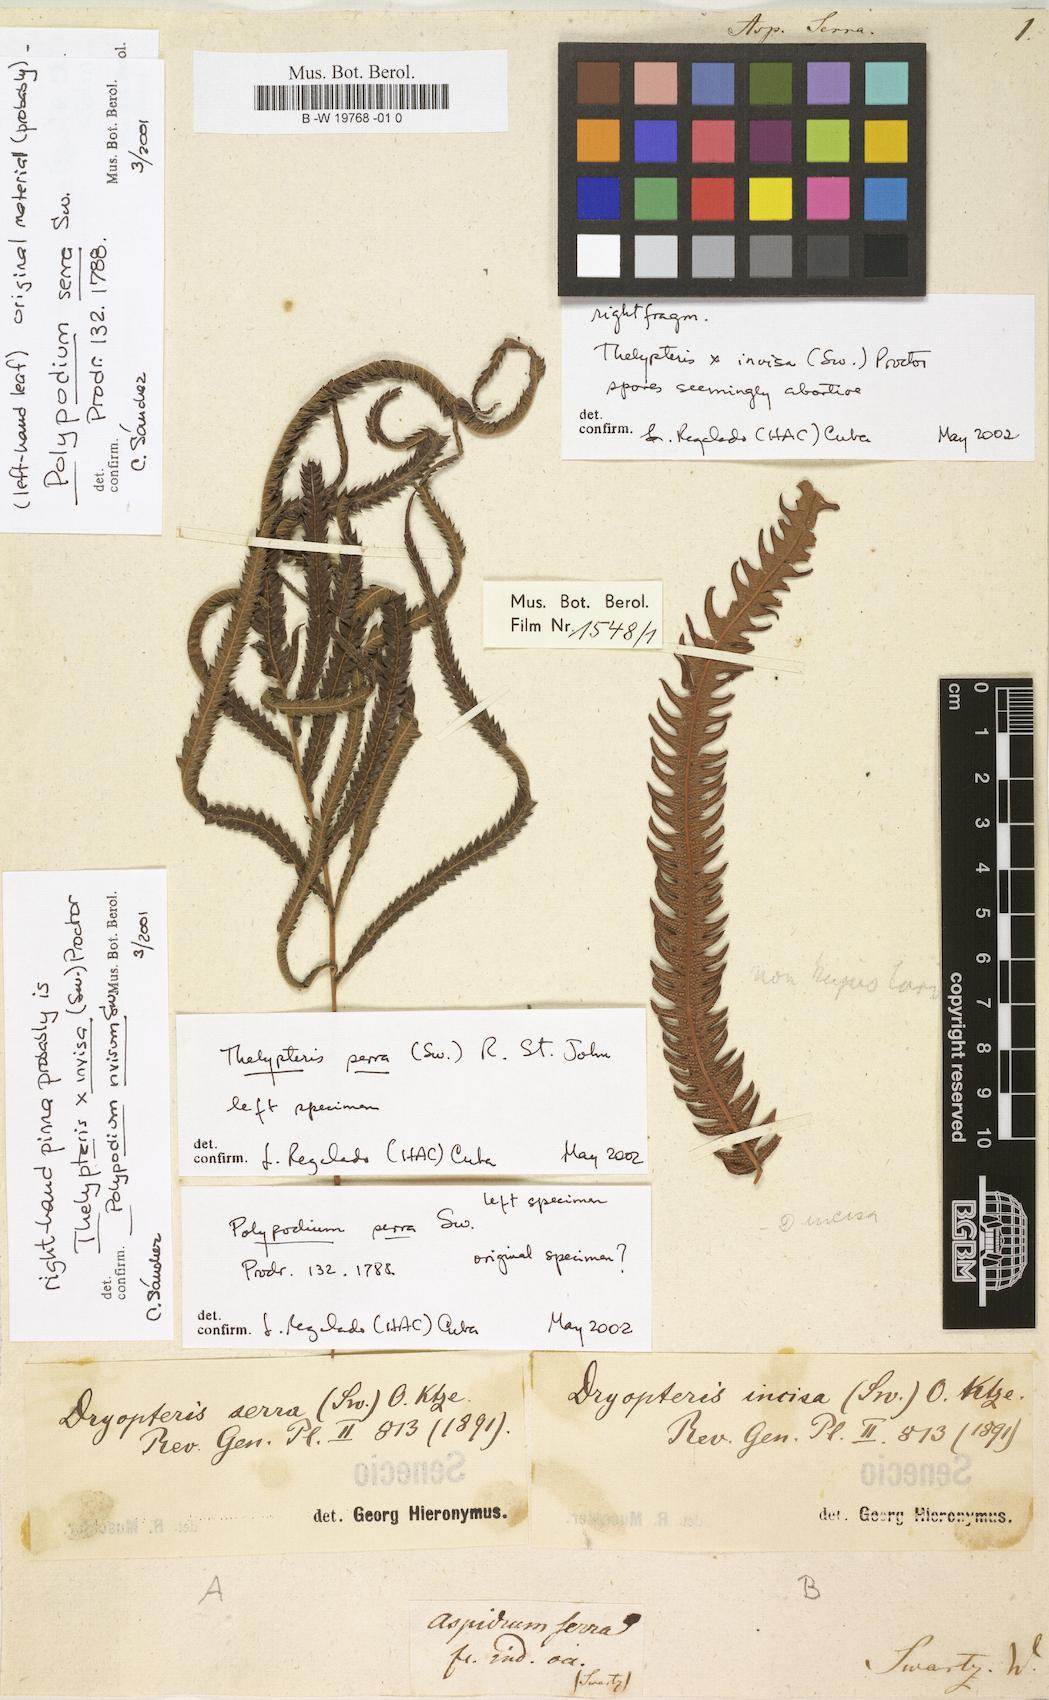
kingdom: Plantae
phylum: Tracheophyta
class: Polypodiopsida
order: Polypodiales
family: Thelypteridaceae
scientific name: Thelypteridaceae
